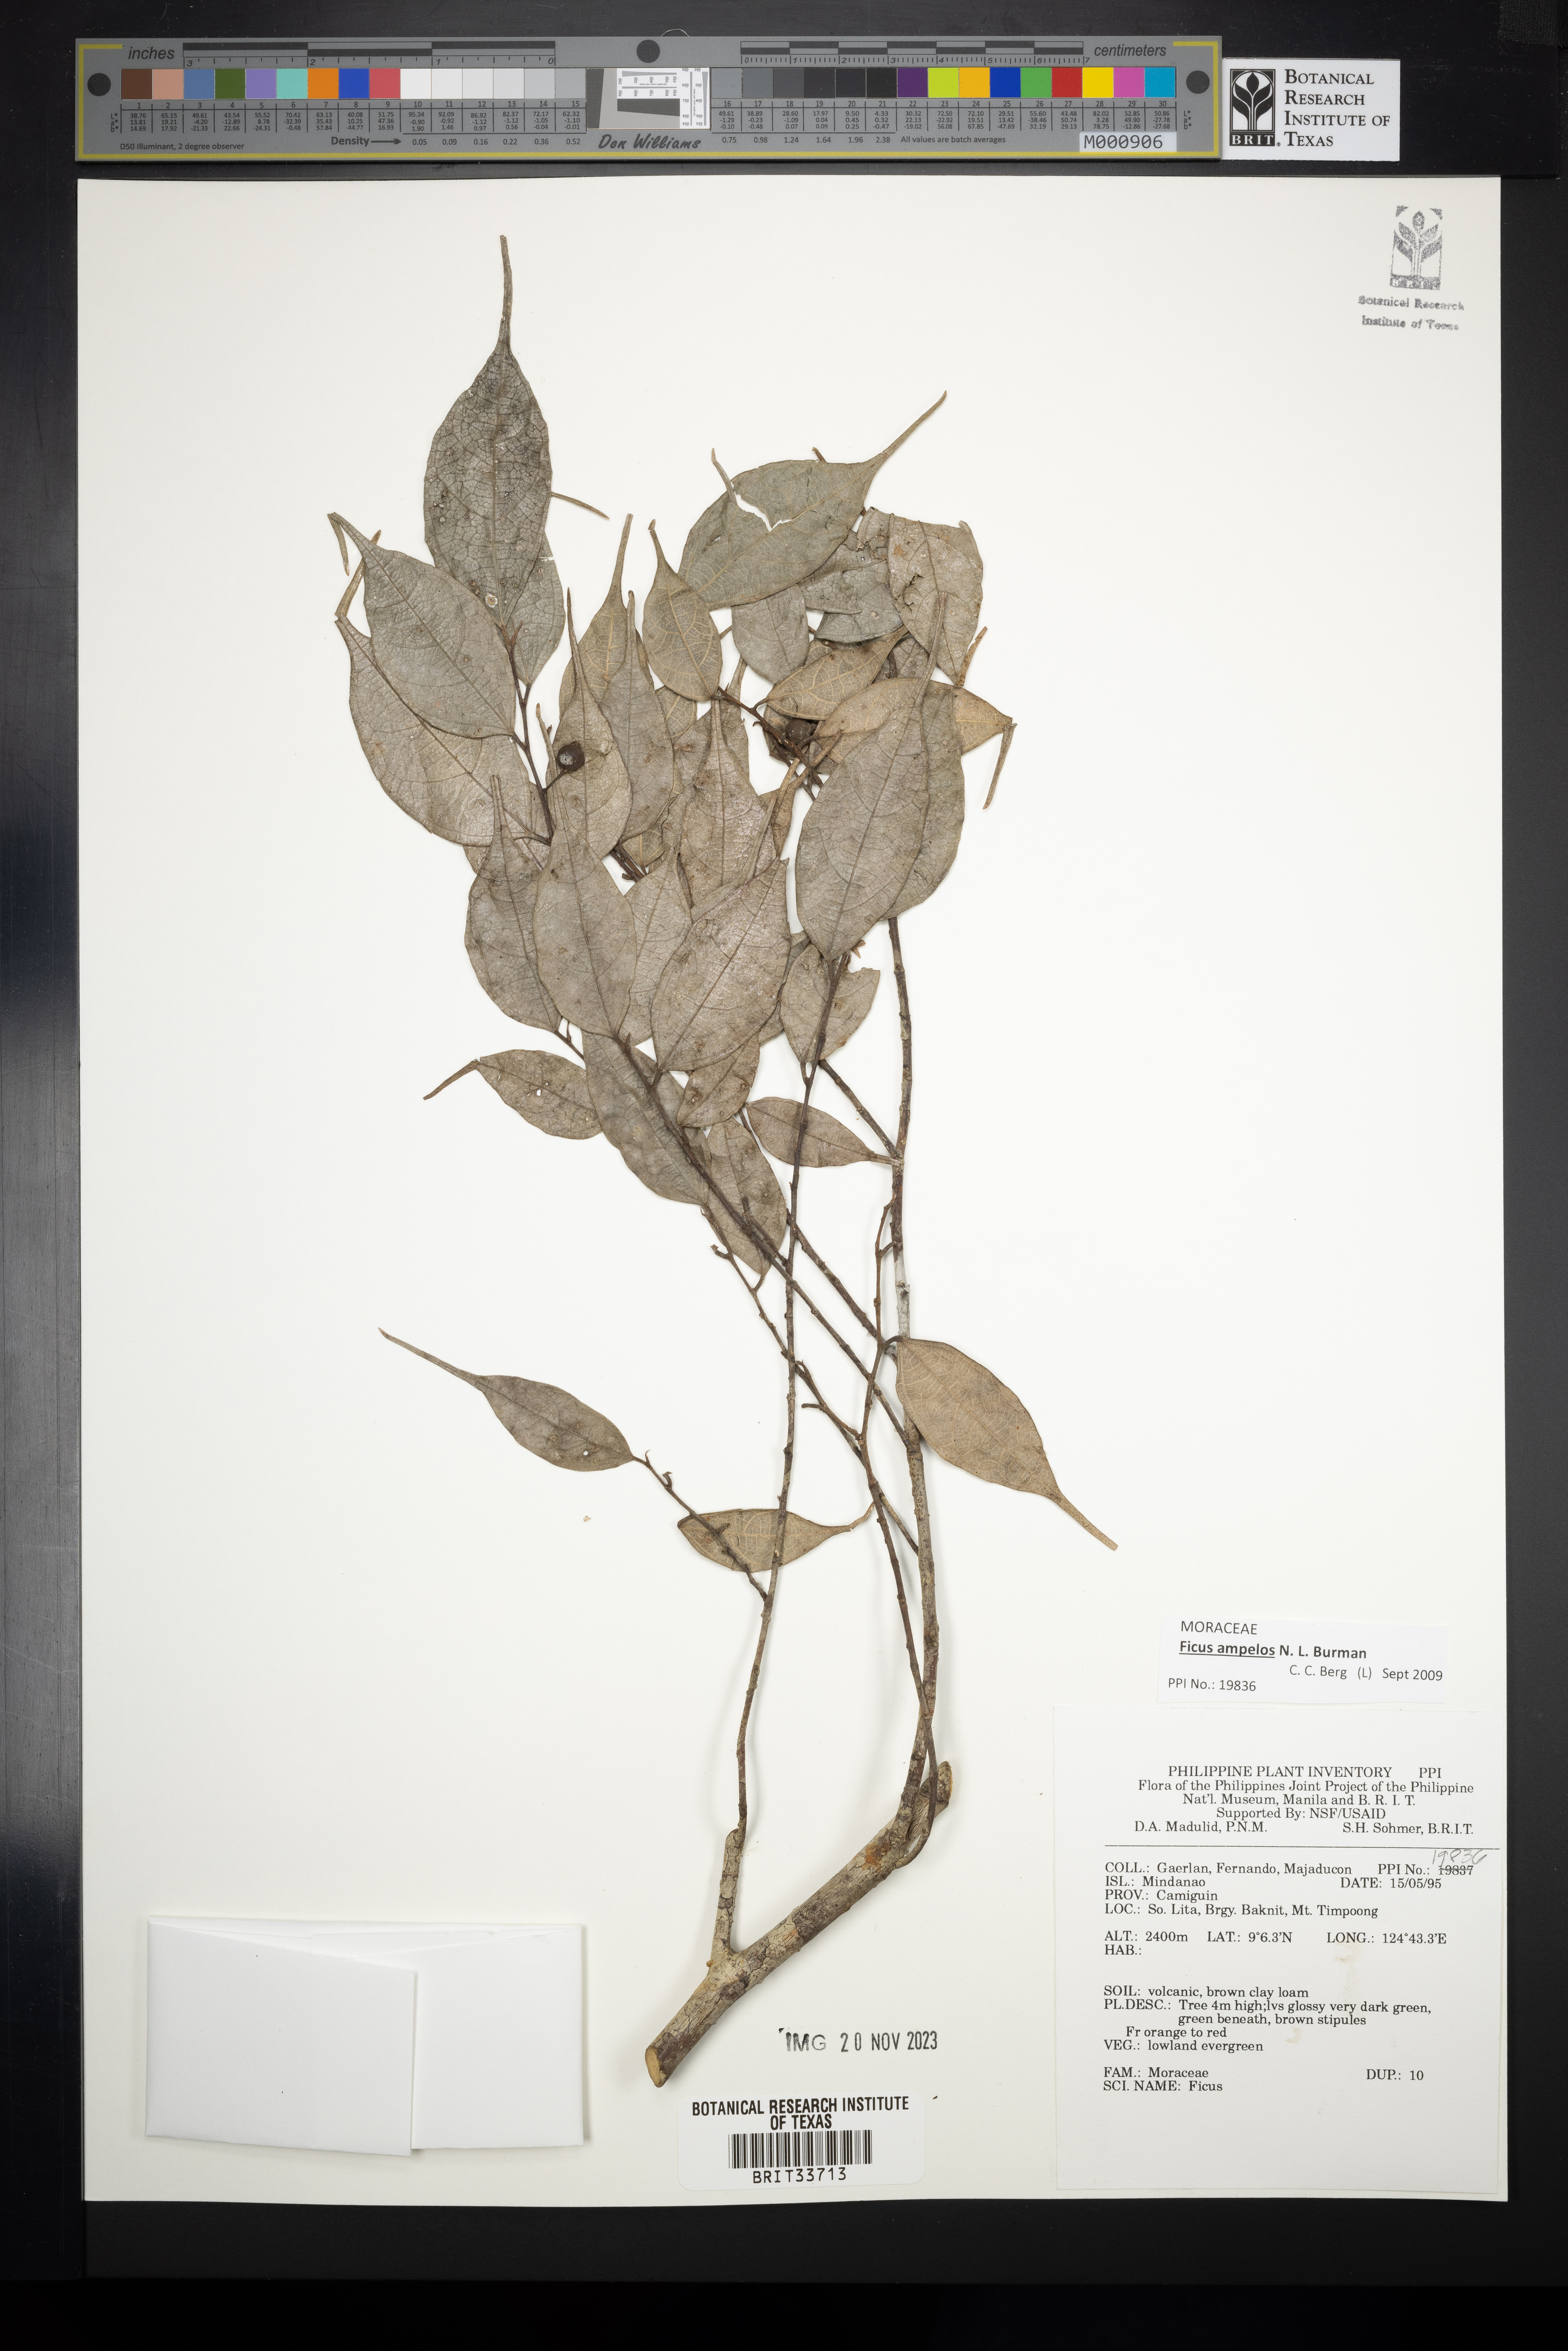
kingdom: Plantae
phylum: Tracheophyta
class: Magnoliopsida
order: Rosales
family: Moraceae
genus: Ficus
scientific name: Ficus
